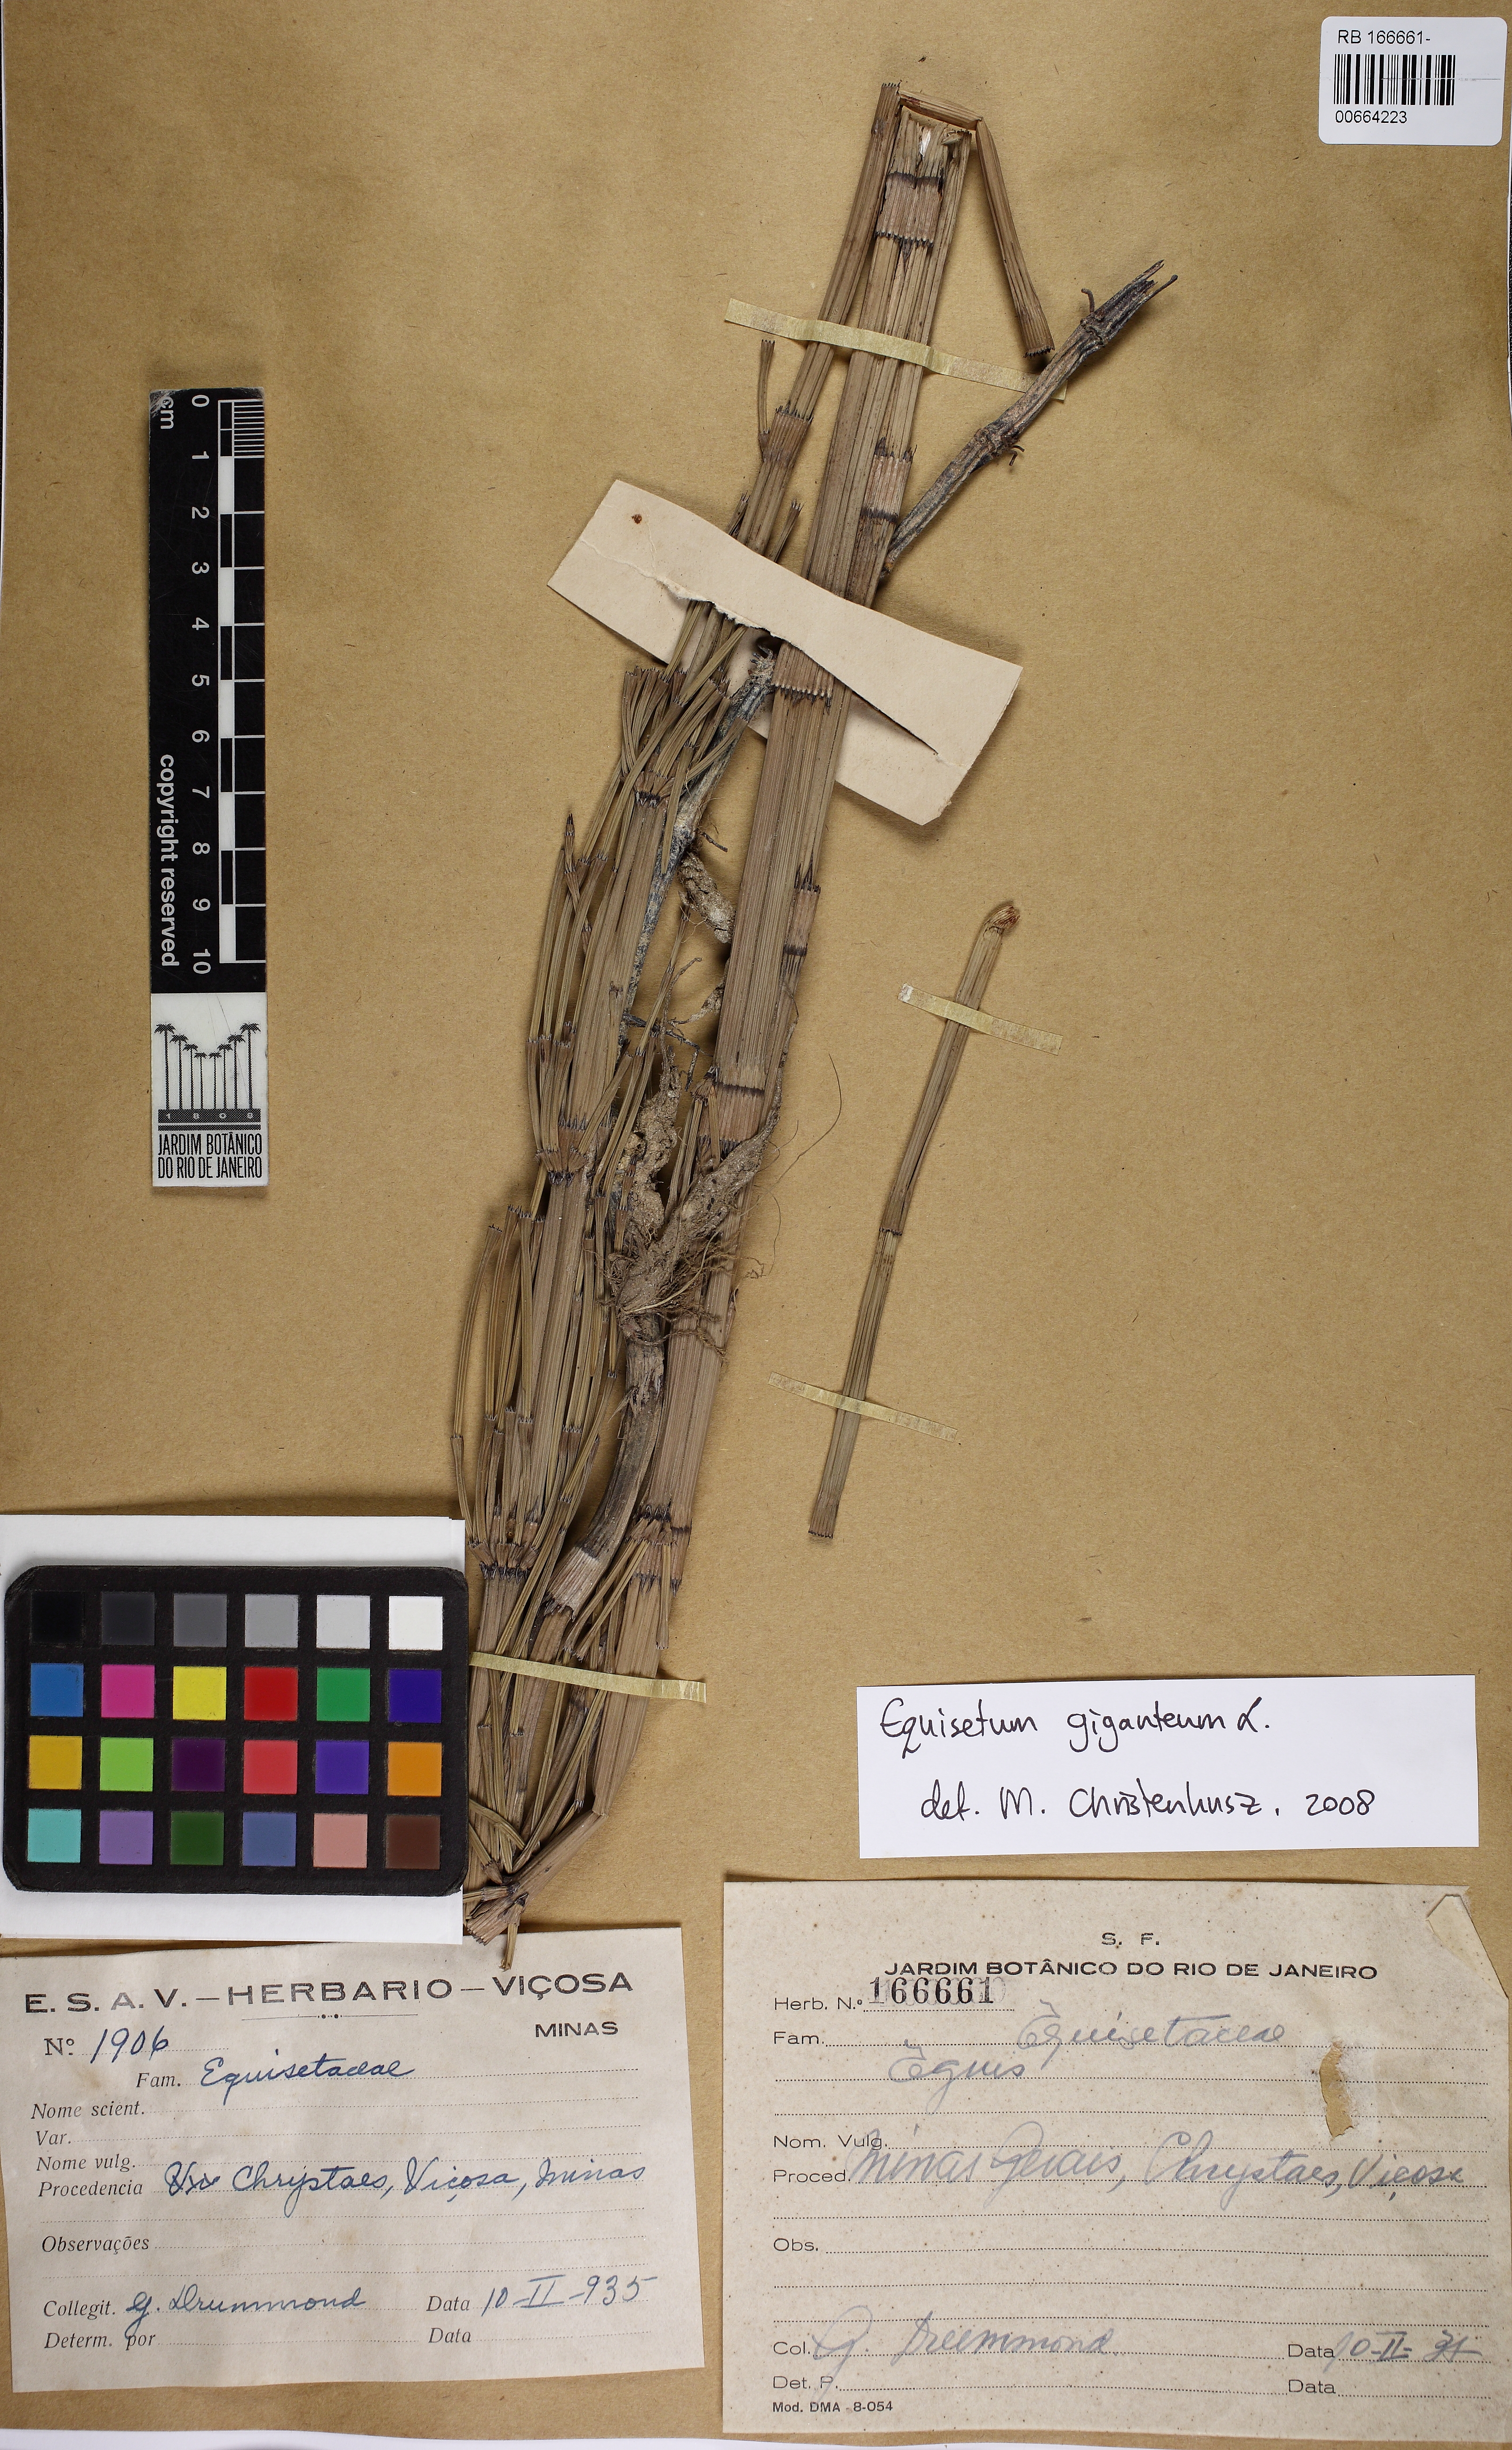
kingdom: Plantae
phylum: Tracheophyta
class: Polypodiopsida
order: Equisetales
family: Equisetaceae
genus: Equisetum
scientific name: Equisetum giganteum
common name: Giant horsetail
